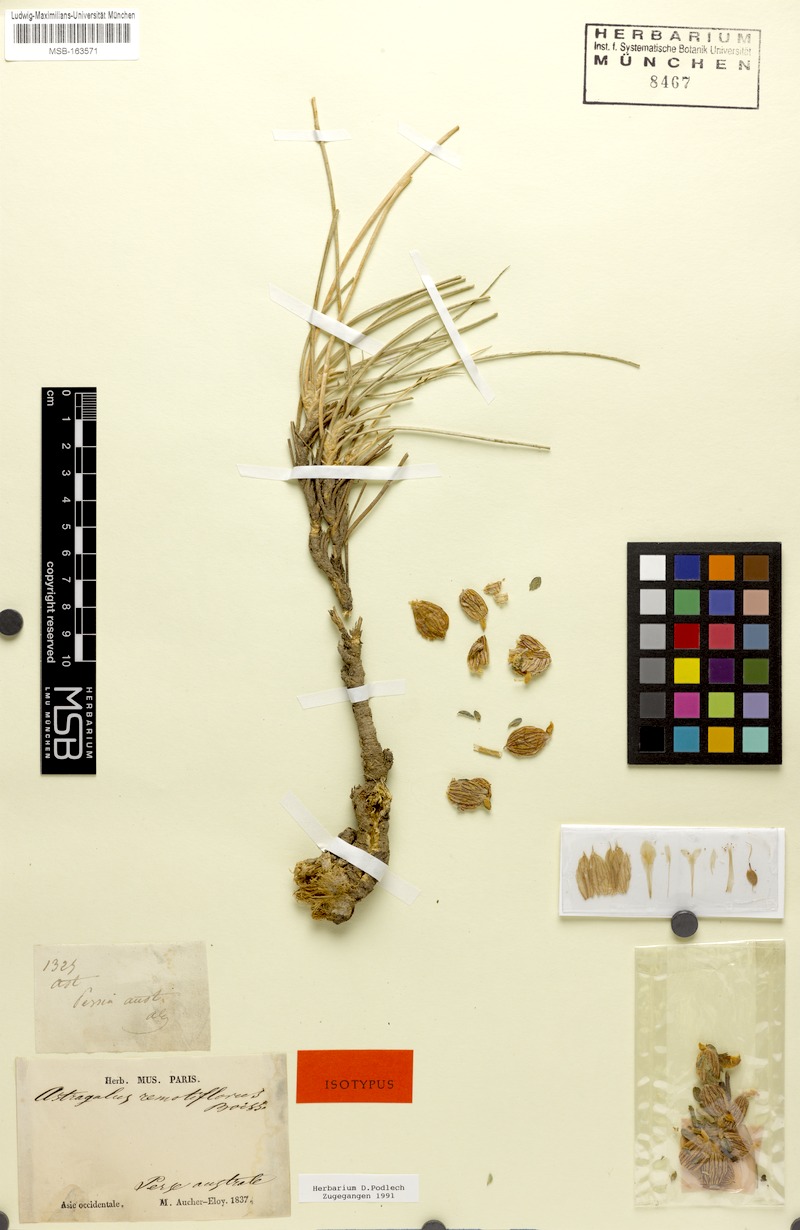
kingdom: Plantae
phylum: Tracheophyta
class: Magnoliopsida
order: Fabales
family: Fabaceae
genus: Astragalus
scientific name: Astragalus remotiflorus
